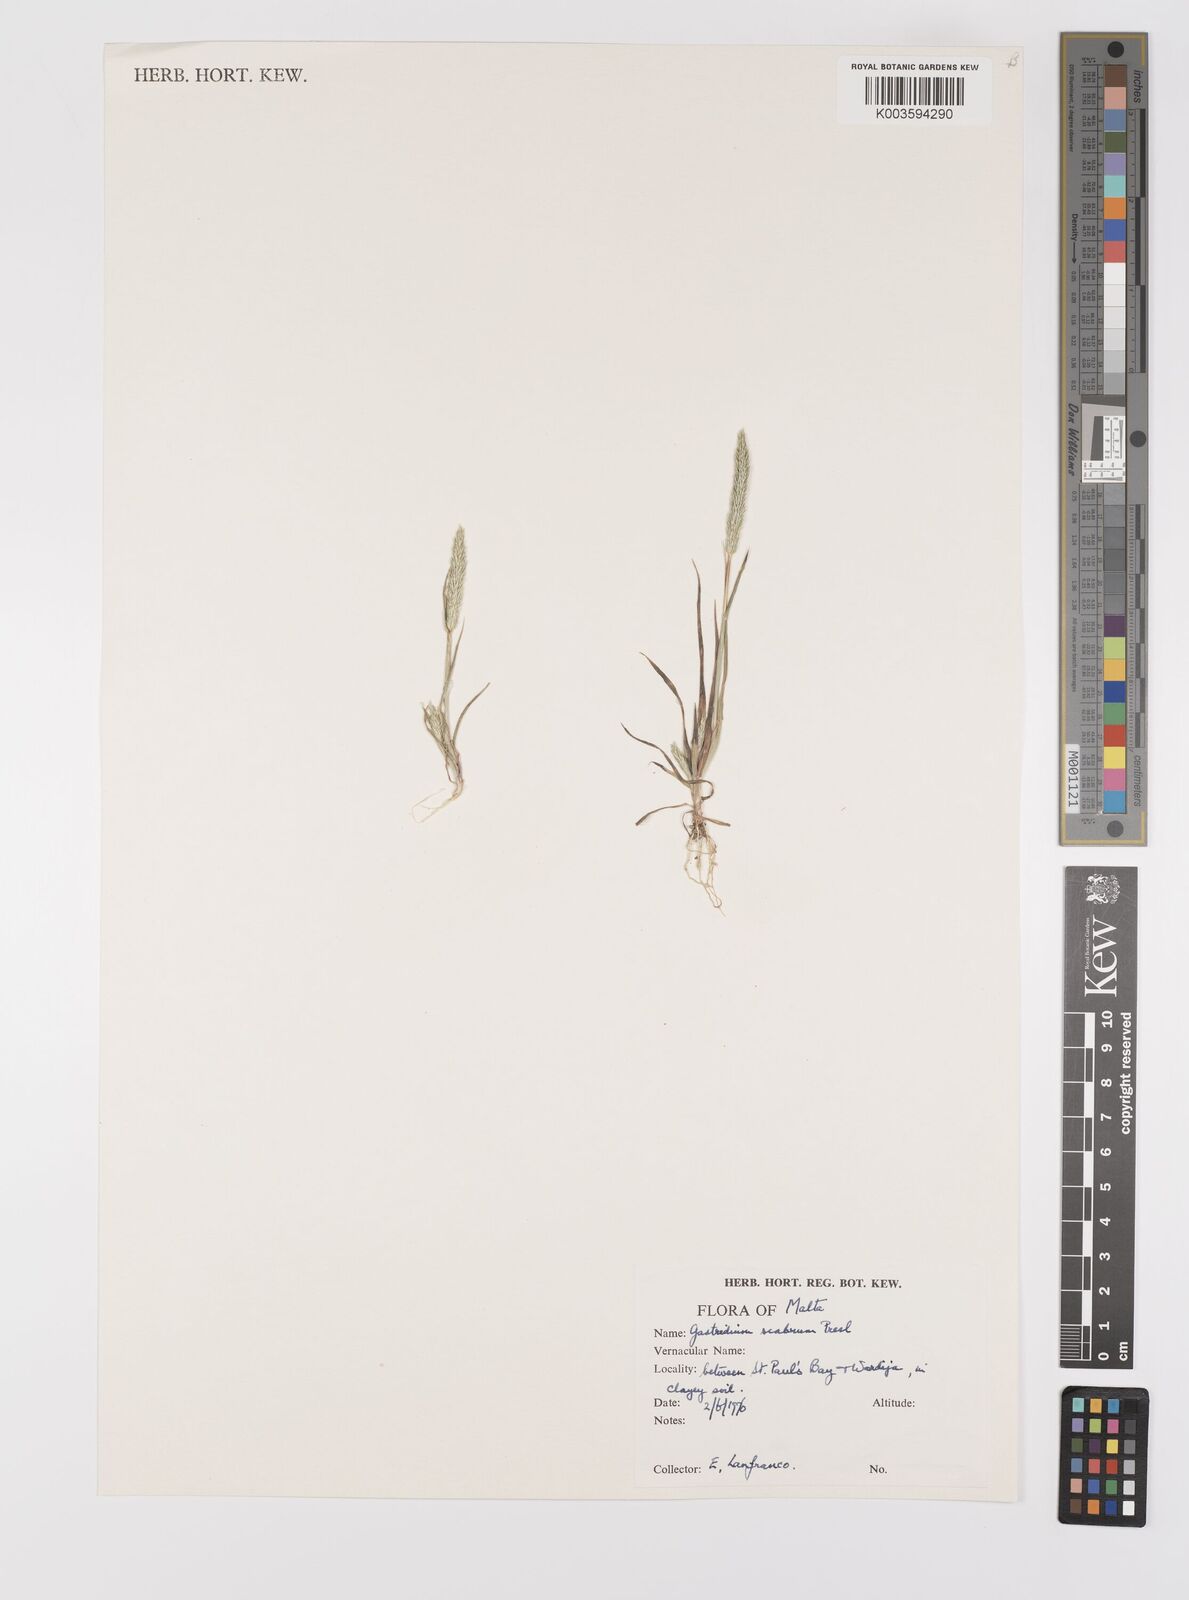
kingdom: Plantae
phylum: Tracheophyta
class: Liliopsida
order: Poales
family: Poaceae
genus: Gastridium
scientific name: Gastridium ventricosum
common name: Nit-grass
